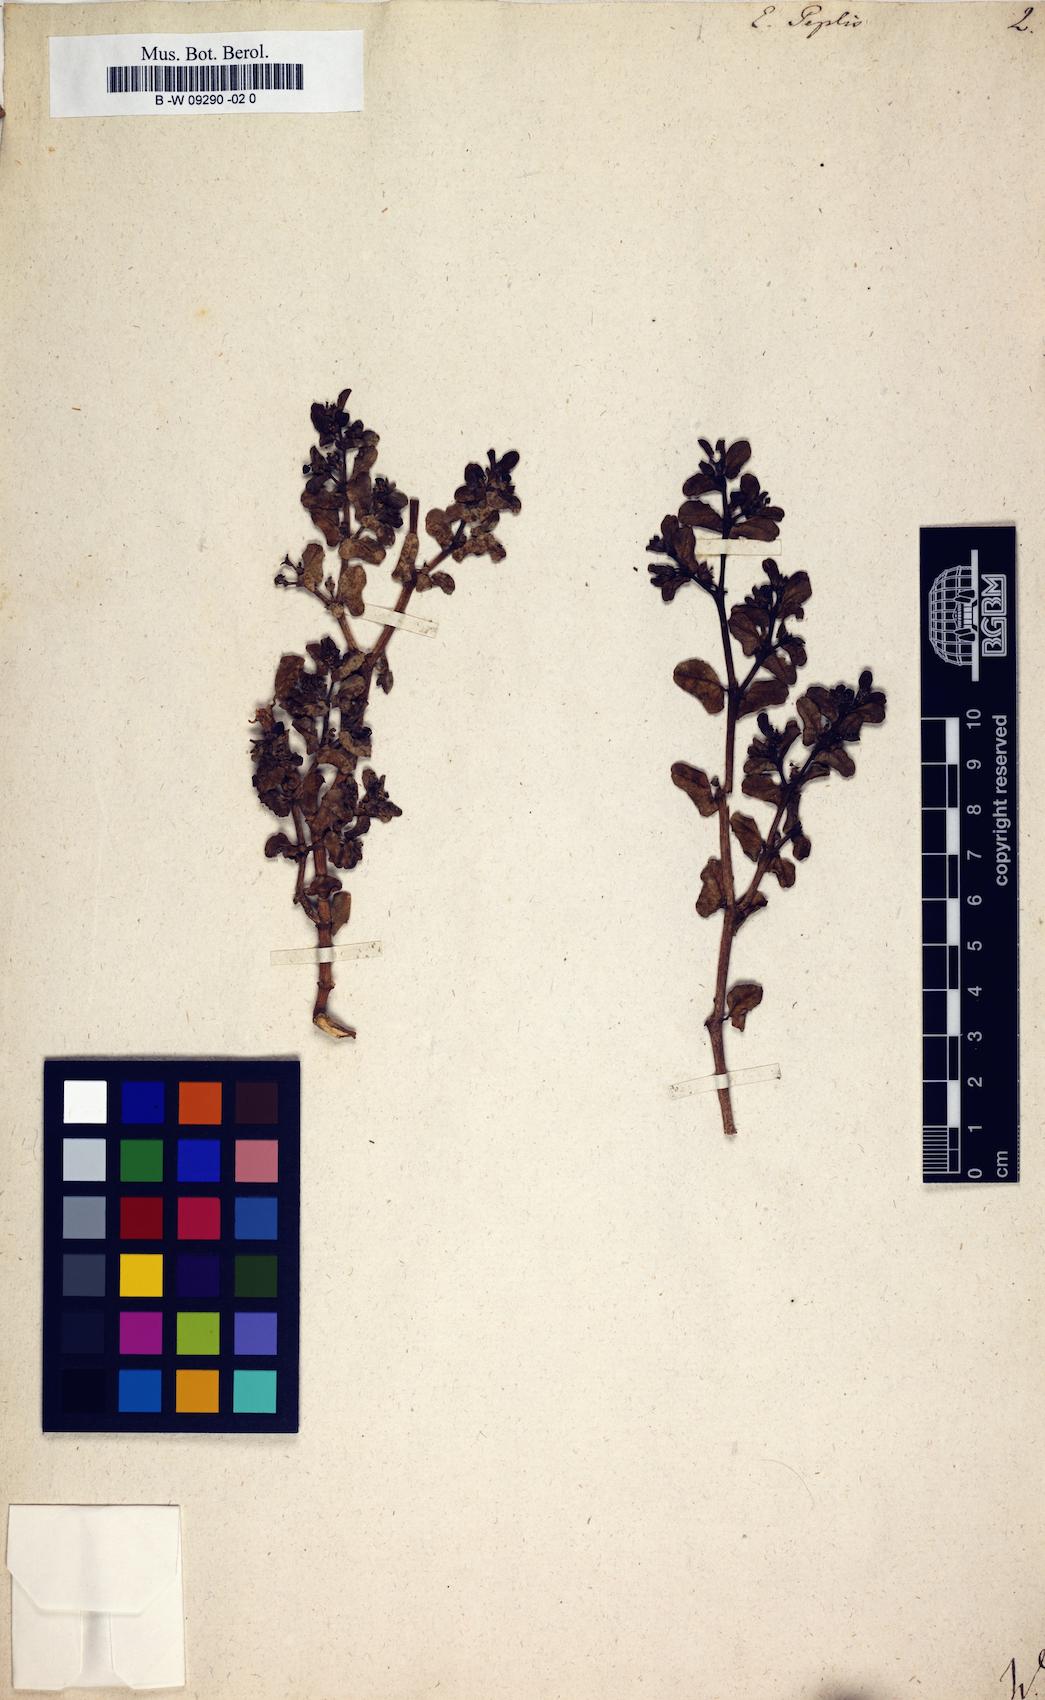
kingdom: Plantae
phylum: Tracheophyta
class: Magnoliopsida
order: Malpighiales
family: Euphorbiaceae
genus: Euphorbia
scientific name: Euphorbia peplis
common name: Purple spurge
